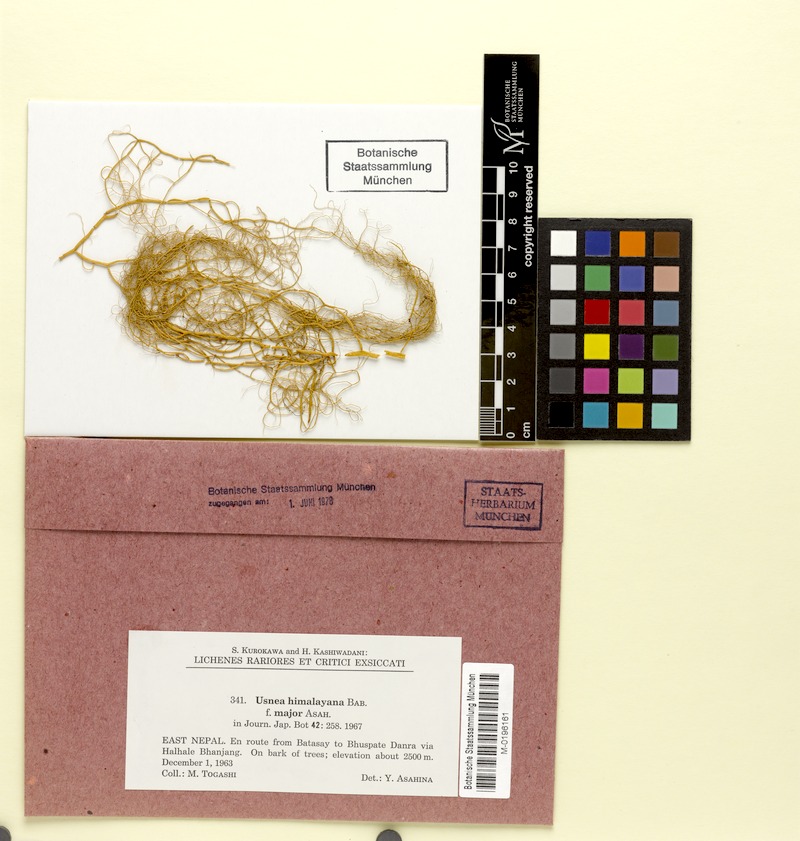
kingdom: Fungi
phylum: Ascomycota
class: Lecanoromycetes
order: Lecanorales
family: Parmeliaceae
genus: Usnea
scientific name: Usnea himalayana
